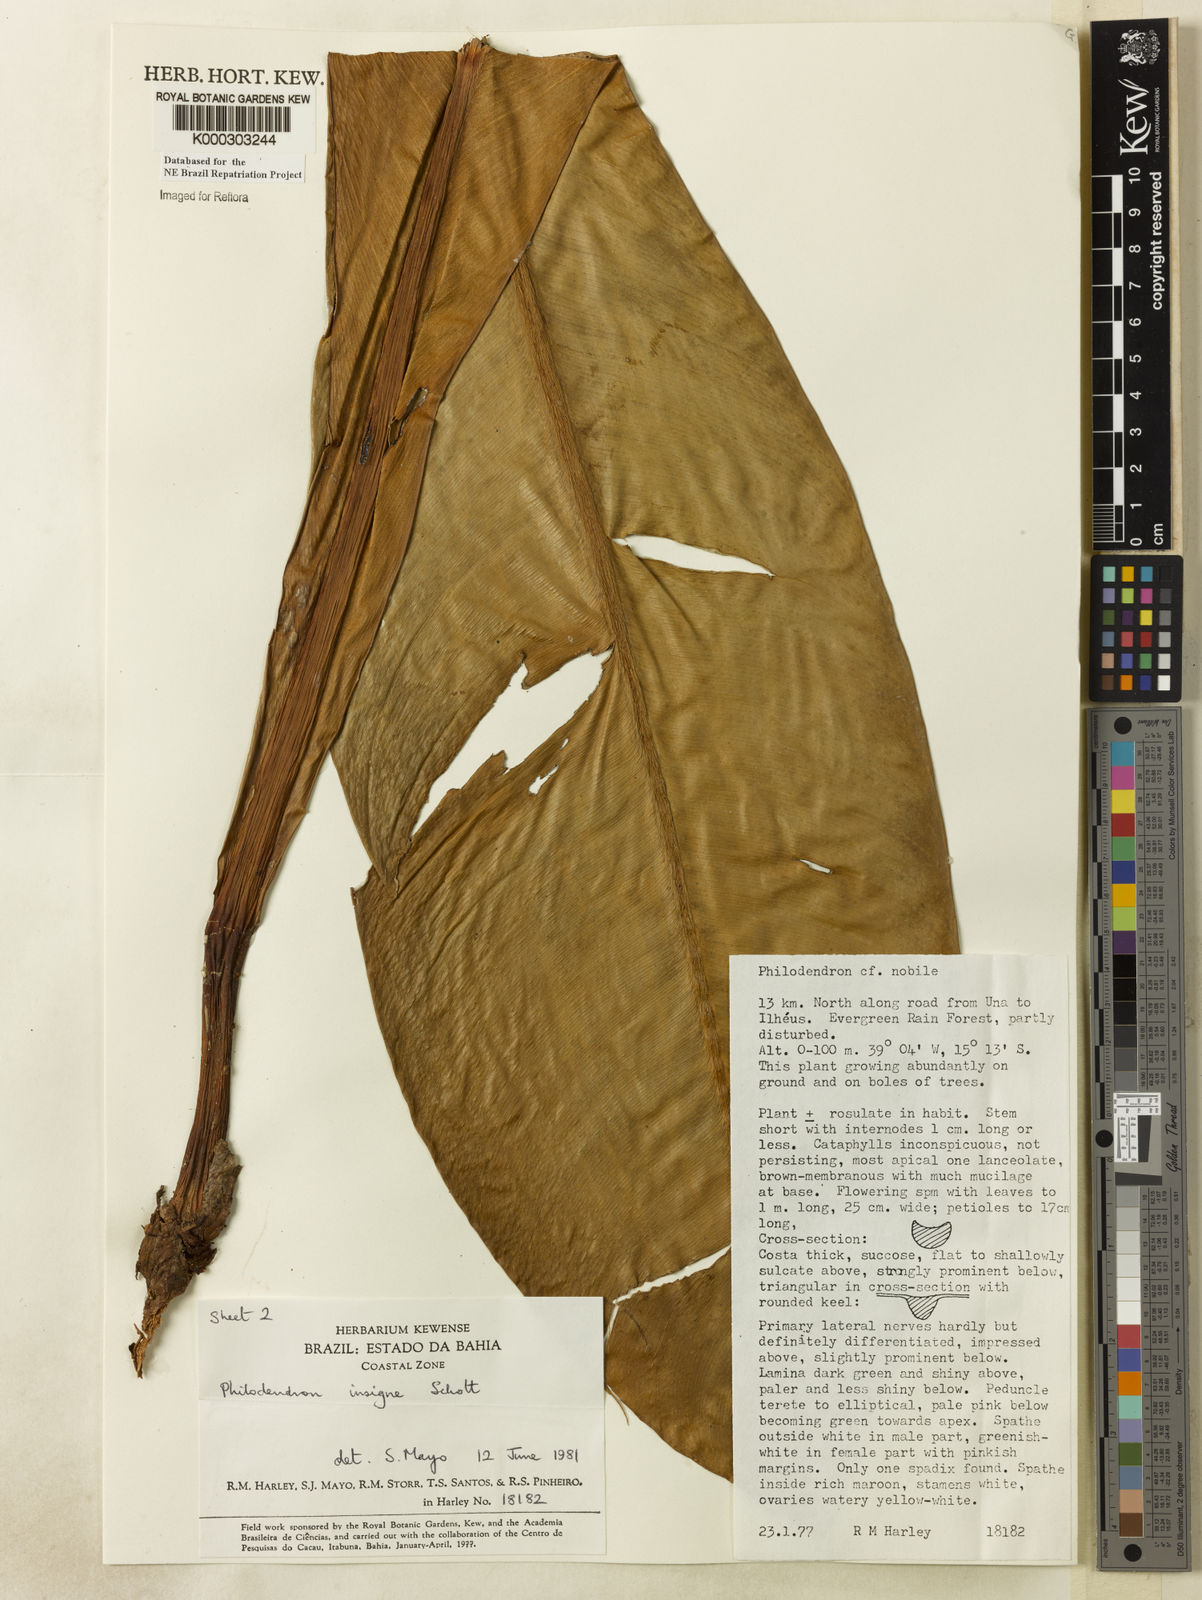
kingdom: Plantae
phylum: Tracheophyta
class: Liliopsida
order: Alismatales
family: Araceae
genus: Philodendron
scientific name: Philodendron insigne
